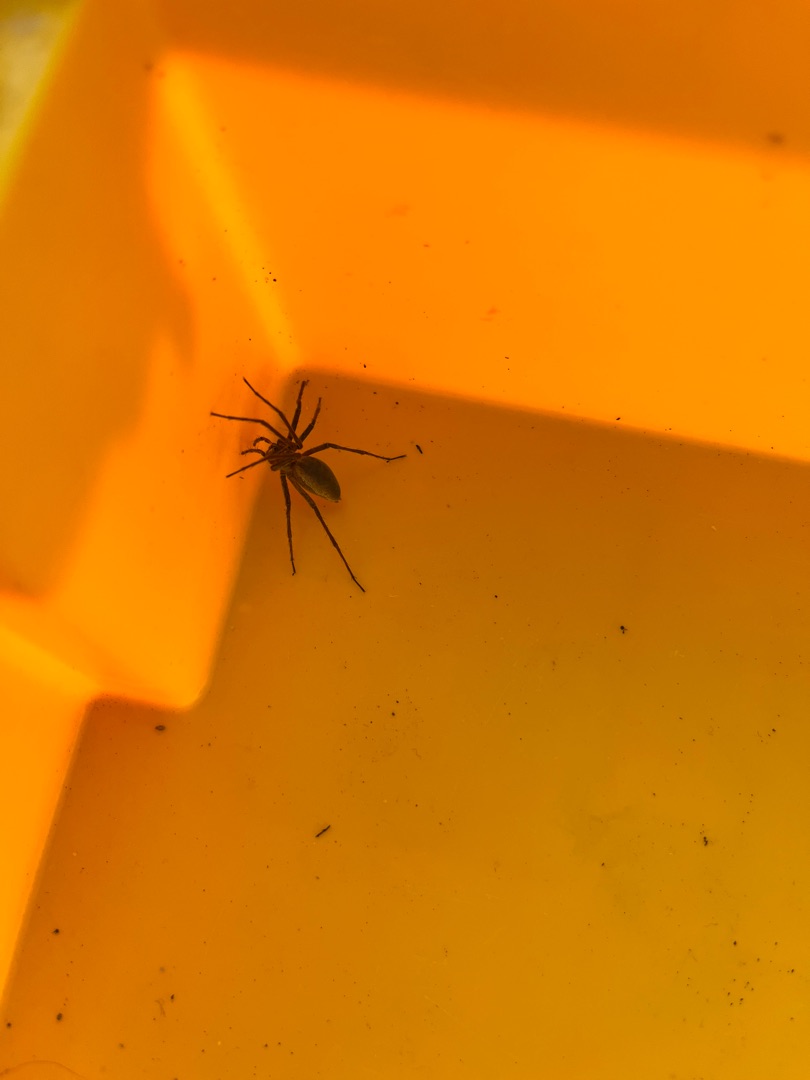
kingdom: Animalia
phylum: Arthropoda
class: Arachnida
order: Araneae
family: Pisauridae
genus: Pisaura
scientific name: Pisaura mirabilis
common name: Almindelig rovedderkop
